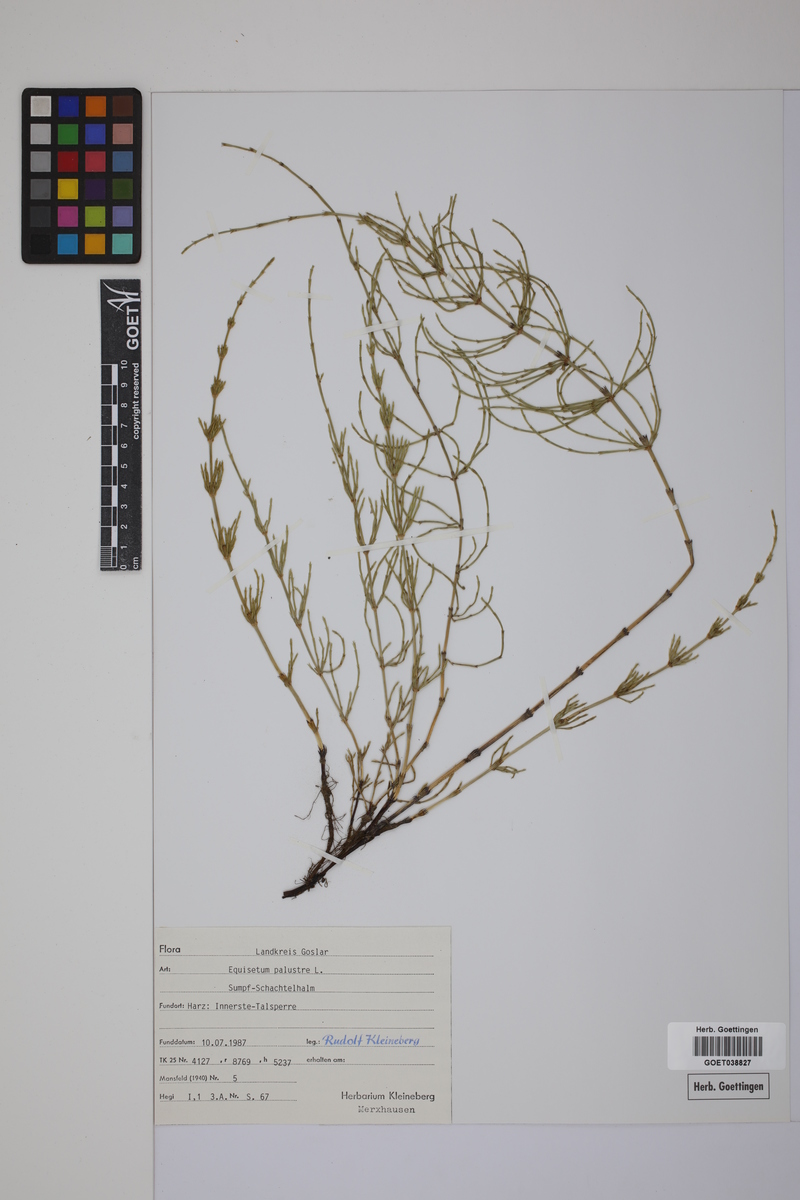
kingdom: Plantae
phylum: Tracheophyta
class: Polypodiopsida
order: Equisetales
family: Equisetaceae
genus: Equisetum
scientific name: Equisetum palustre
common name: Marsh horsetail
